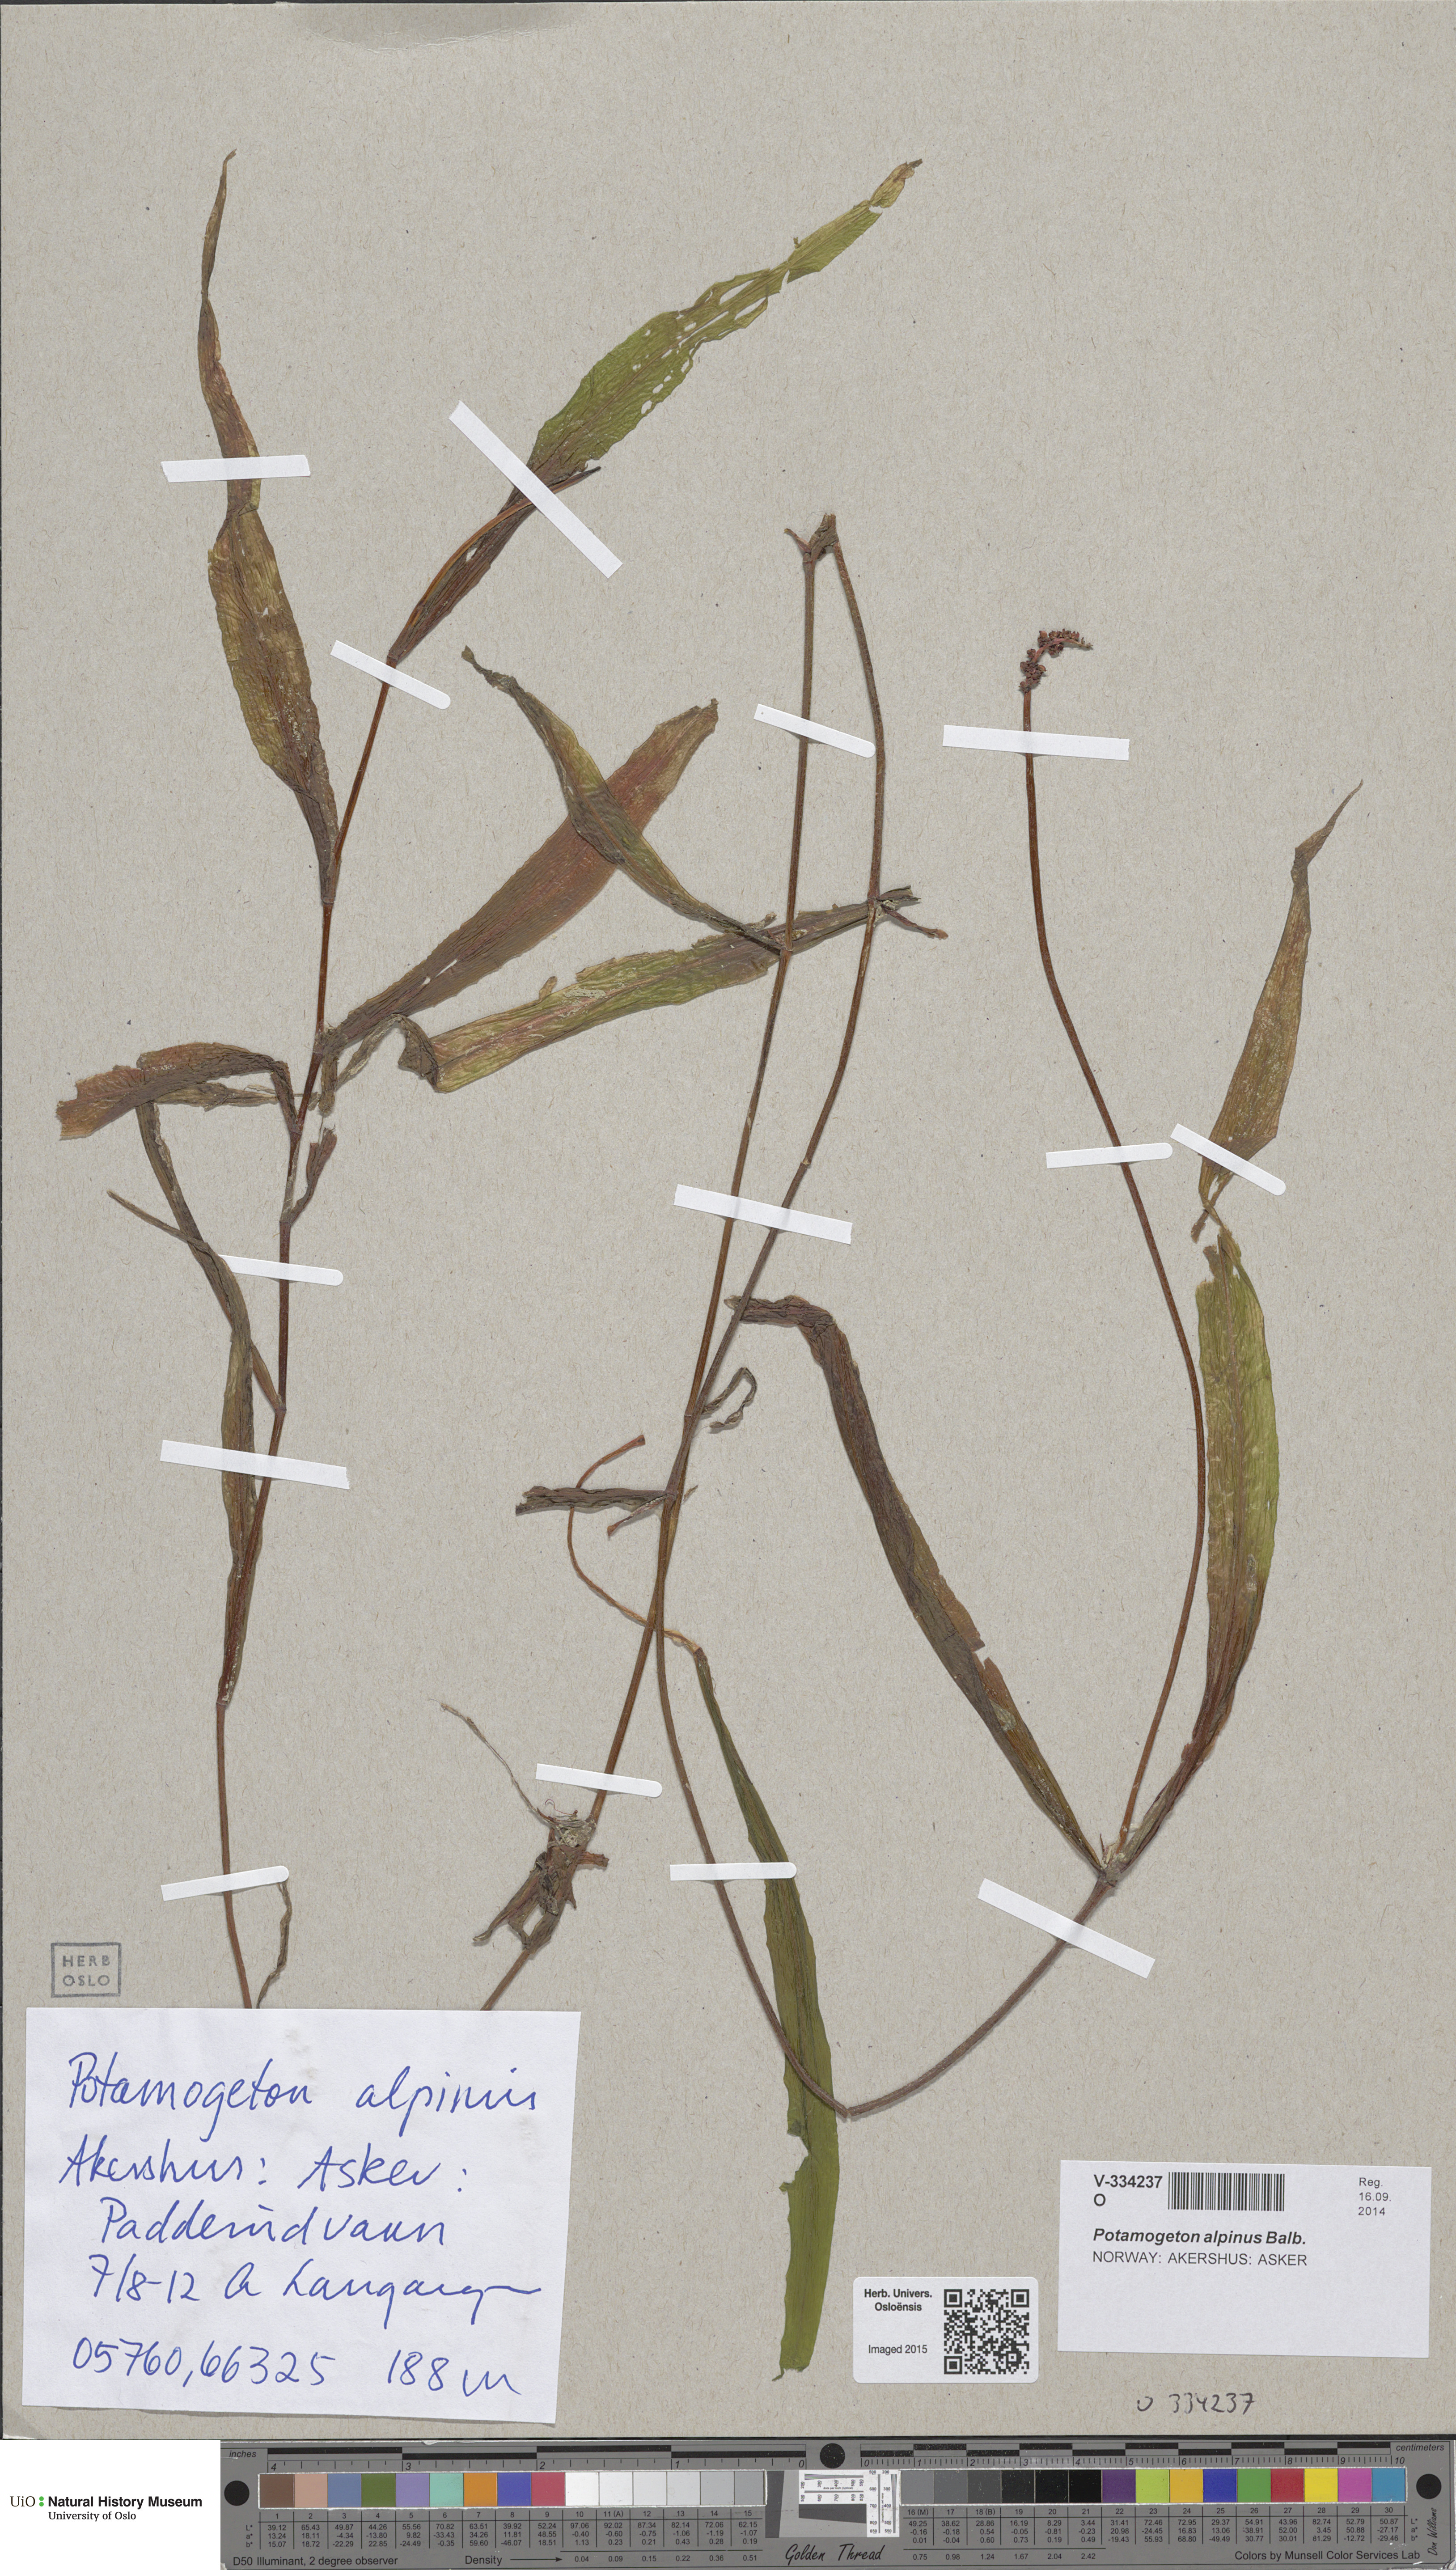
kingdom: Plantae
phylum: Tracheophyta
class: Liliopsida
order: Alismatales
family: Potamogetonaceae
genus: Potamogeton
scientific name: Potamogeton alpinus
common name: Red pondweed
